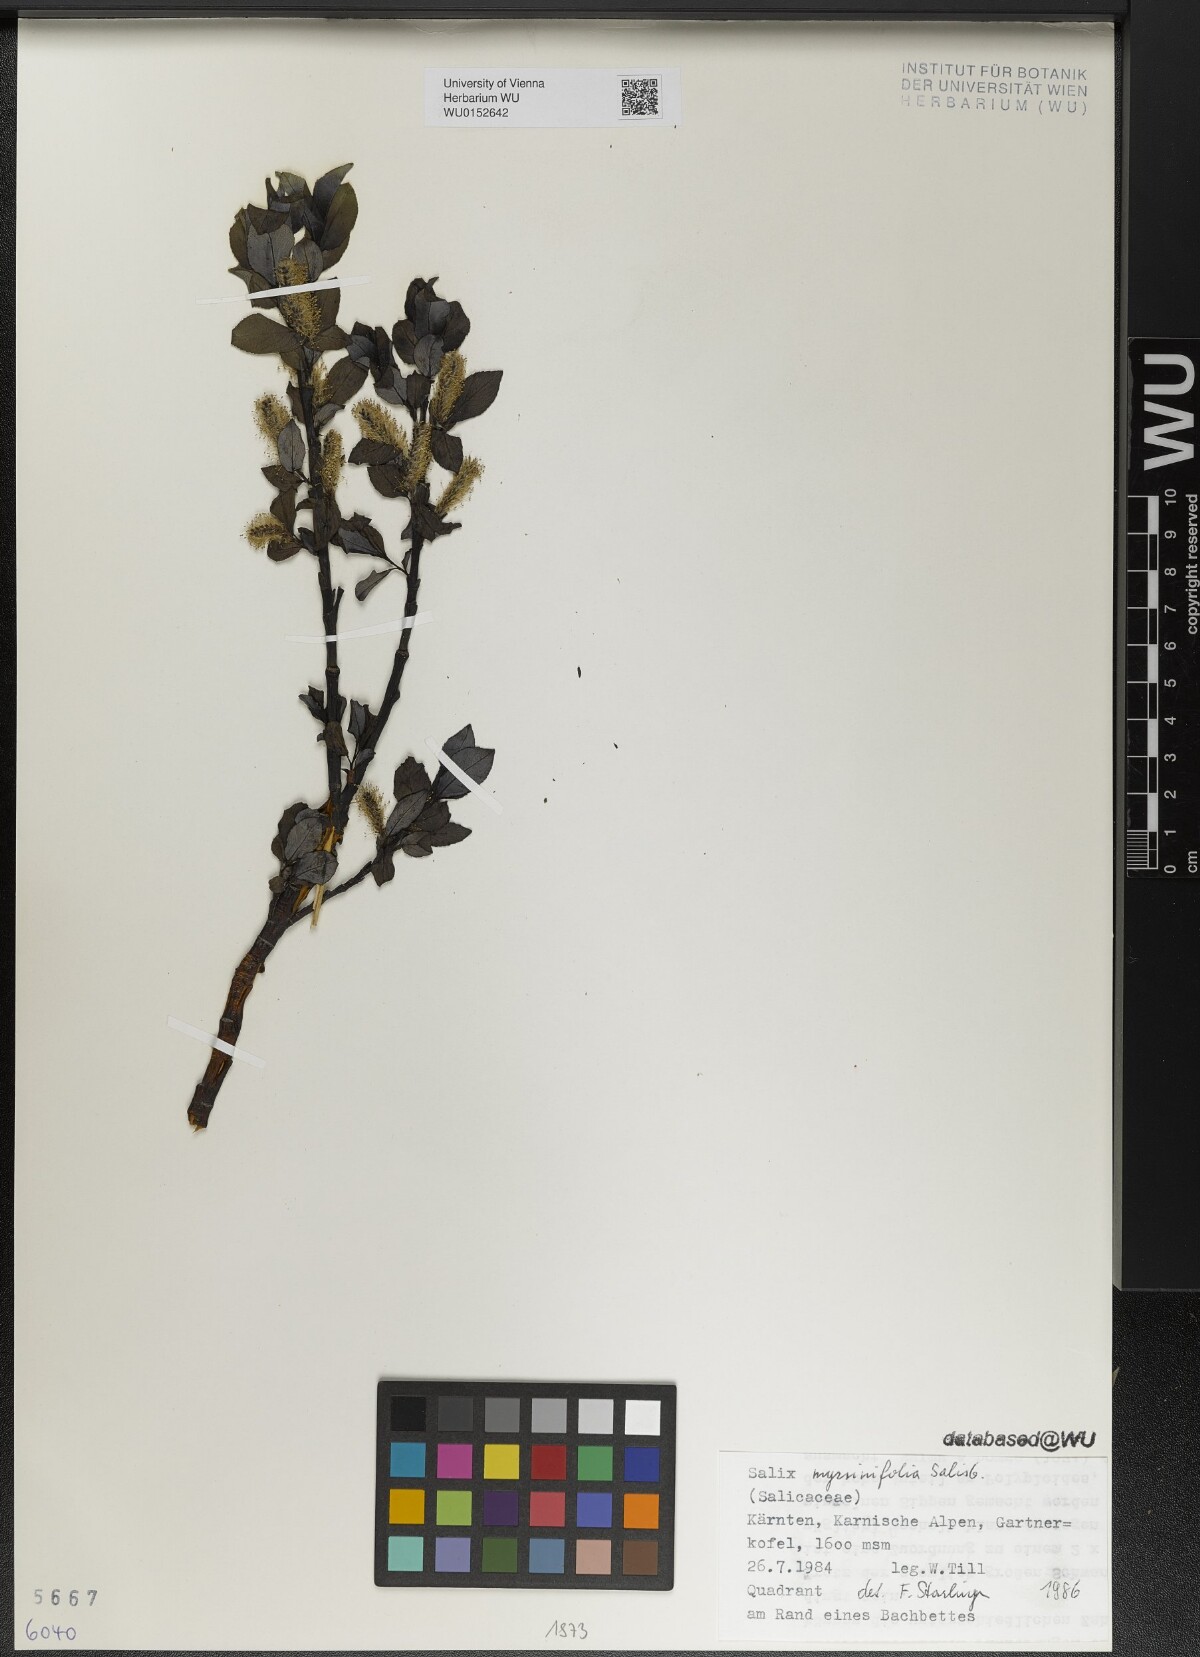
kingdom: Plantae
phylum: Tracheophyta
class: Magnoliopsida
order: Malpighiales
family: Salicaceae
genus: Salix
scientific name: Salix myrsinifolia
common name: Dark-leaved willow
